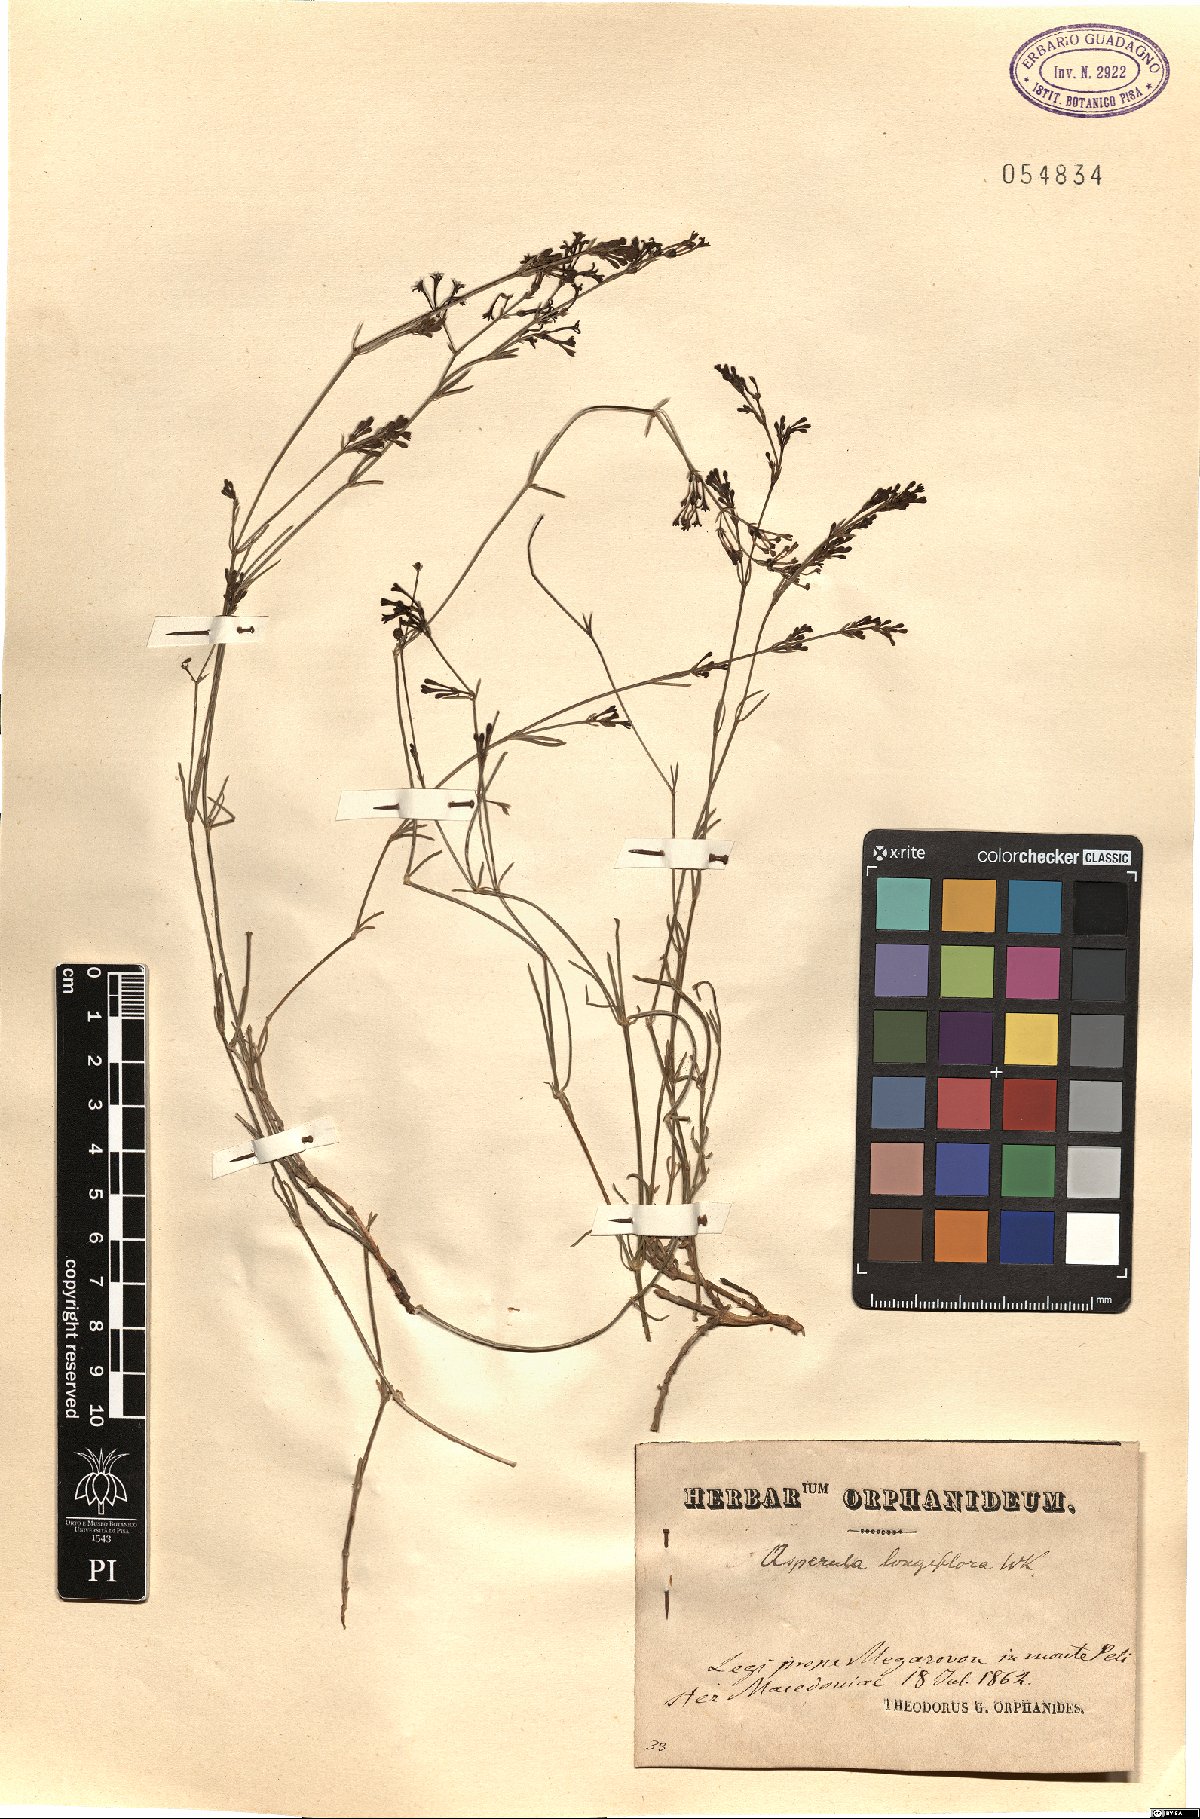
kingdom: Plantae
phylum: Tracheophyta
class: Magnoliopsida
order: Gentianales
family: Rubiaceae
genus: Cynanchica
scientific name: Cynanchica aristata
